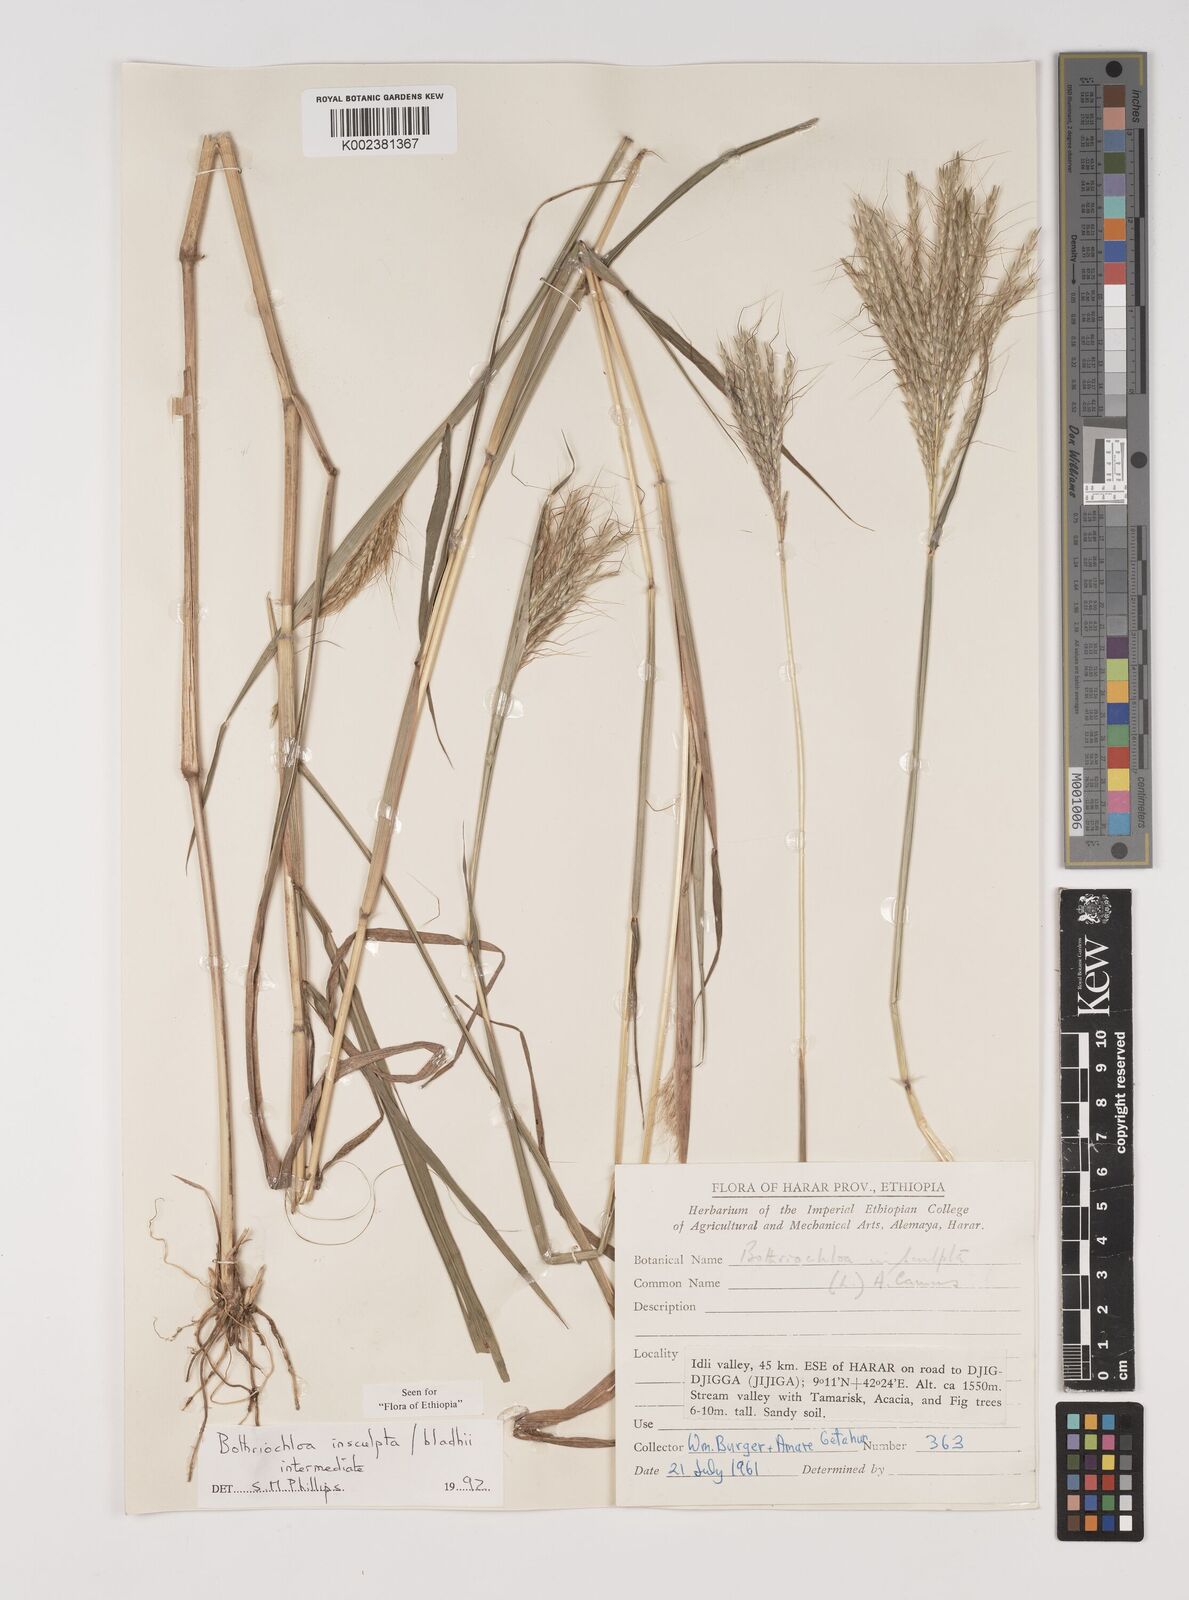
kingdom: Plantae
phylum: Tracheophyta
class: Liliopsida
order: Poales
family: Poaceae
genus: Bothriochloa
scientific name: Bothriochloa bladhii
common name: Caucasian bluestem
